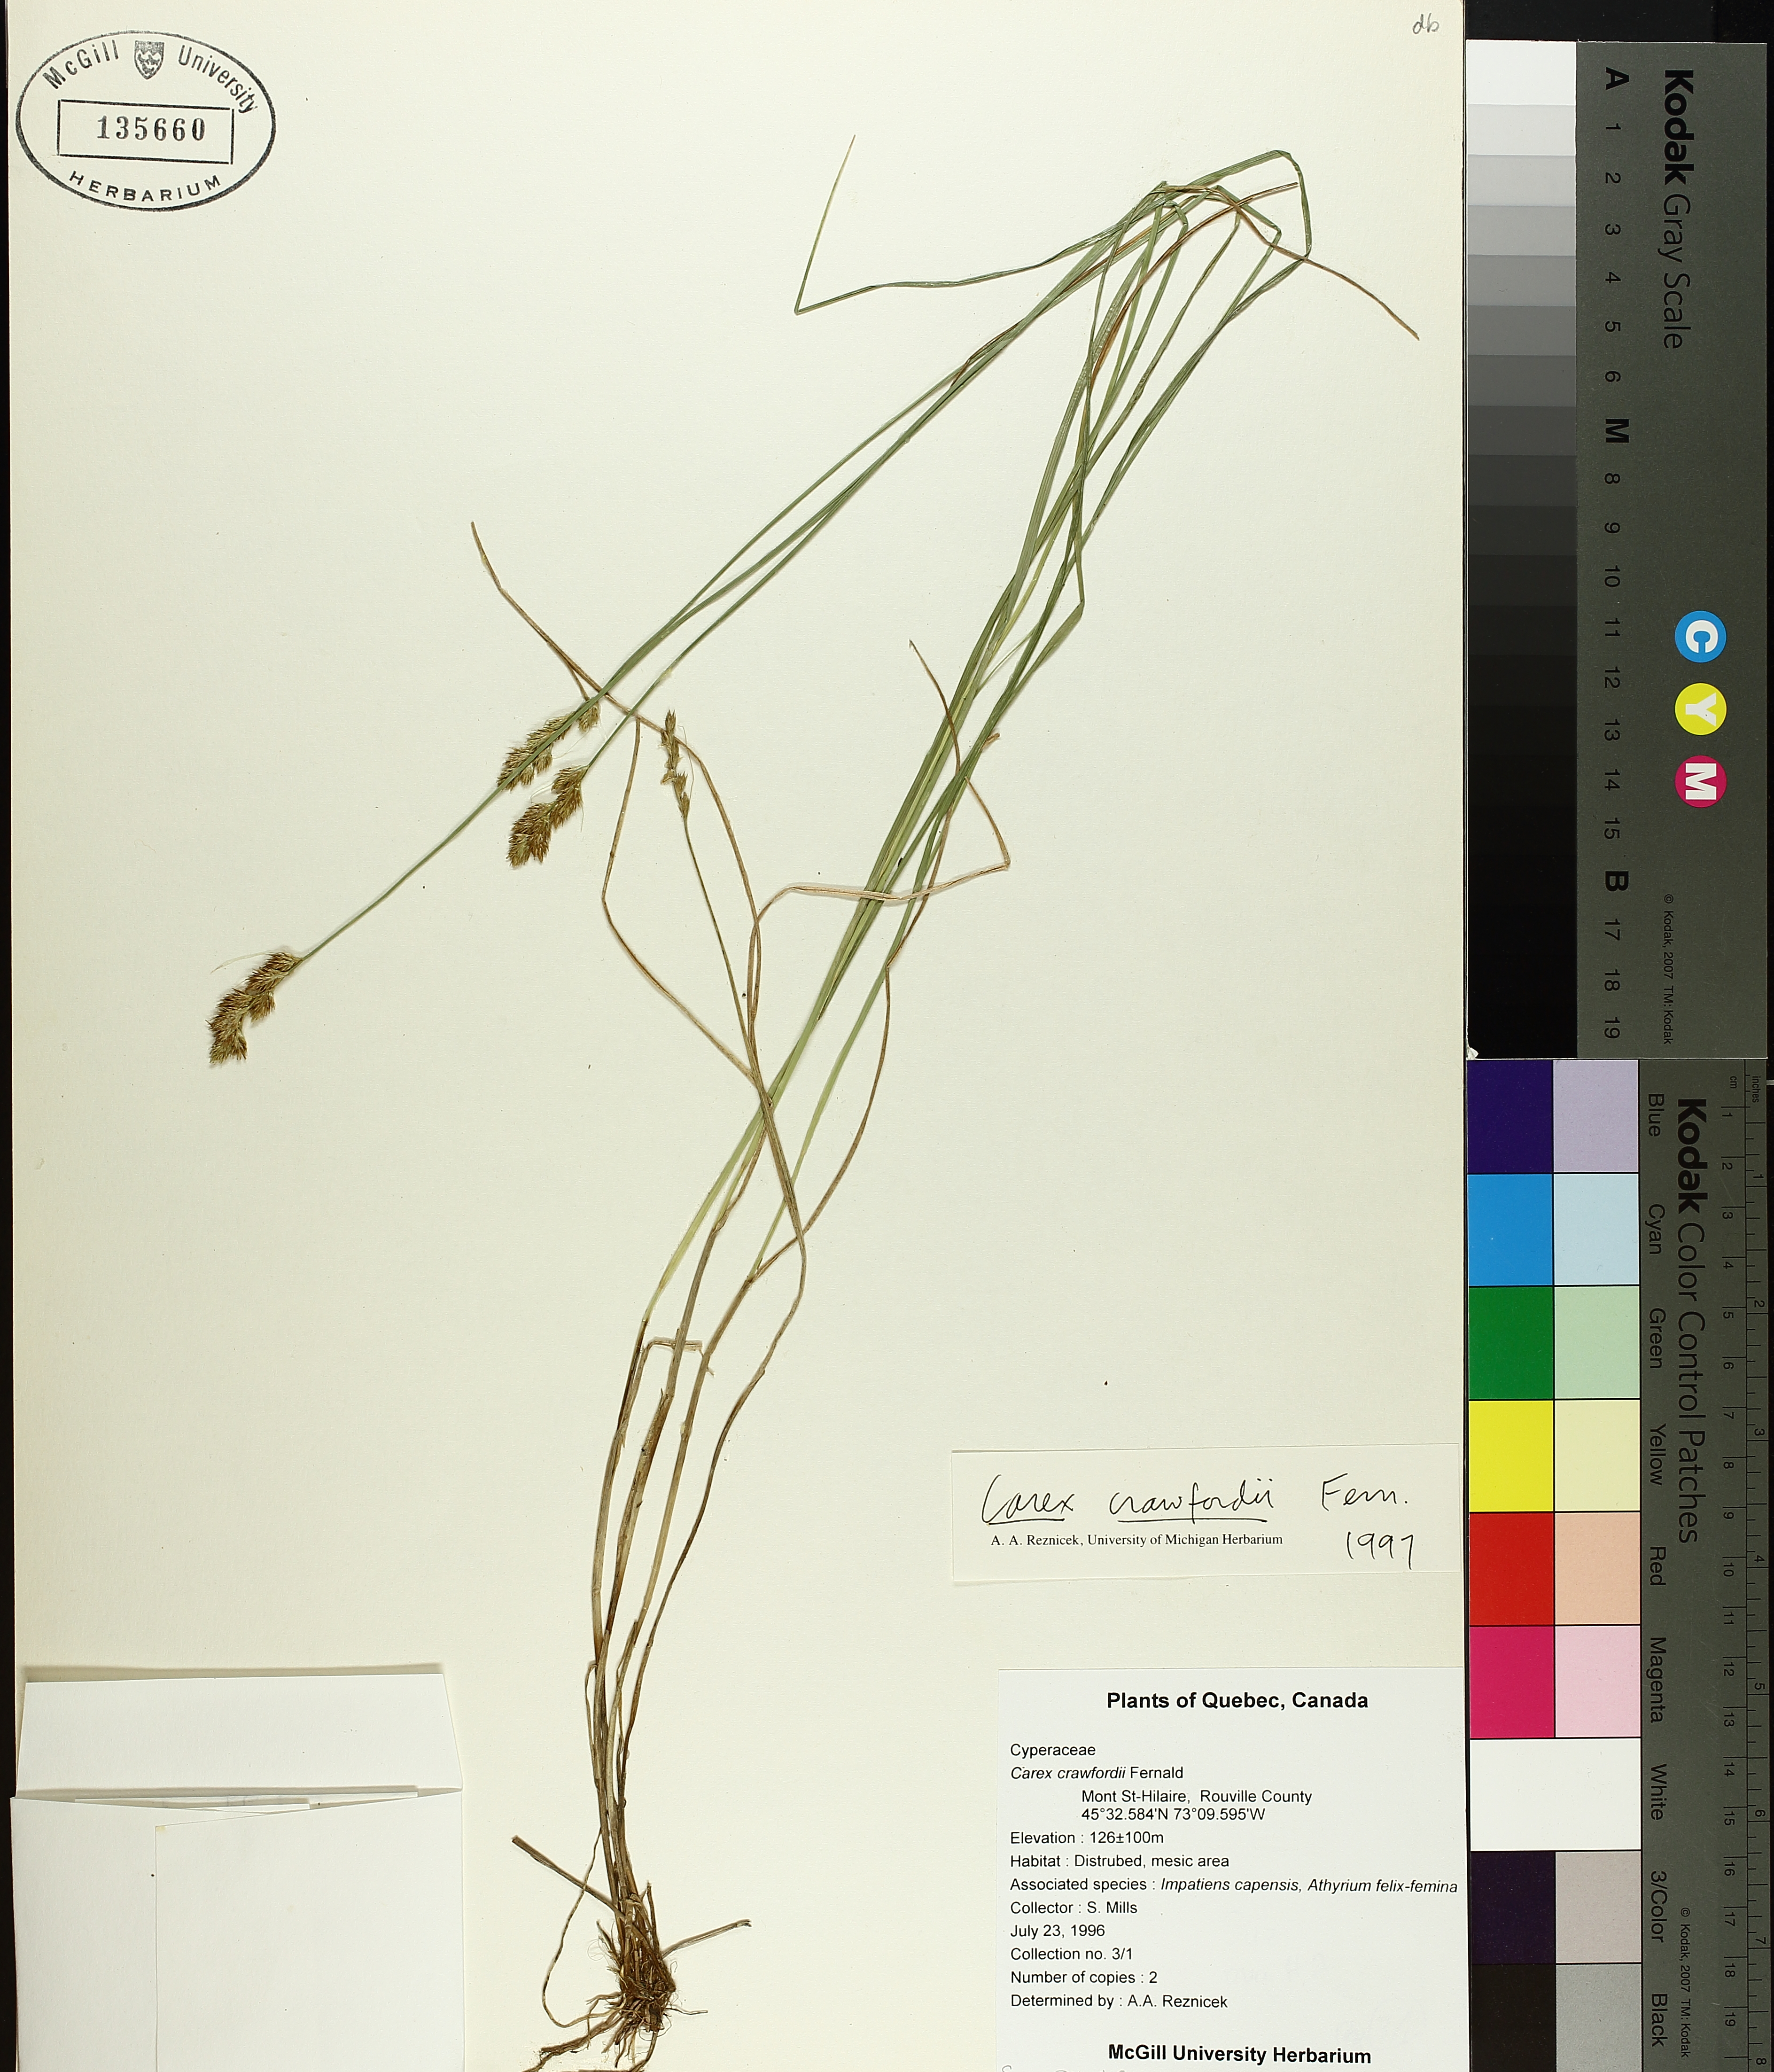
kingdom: Plantae
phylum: Tracheophyta
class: Liliopsida
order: Poales
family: Cyperaceae
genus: Carex
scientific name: Carex crawfordii
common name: Crawford's sedge
